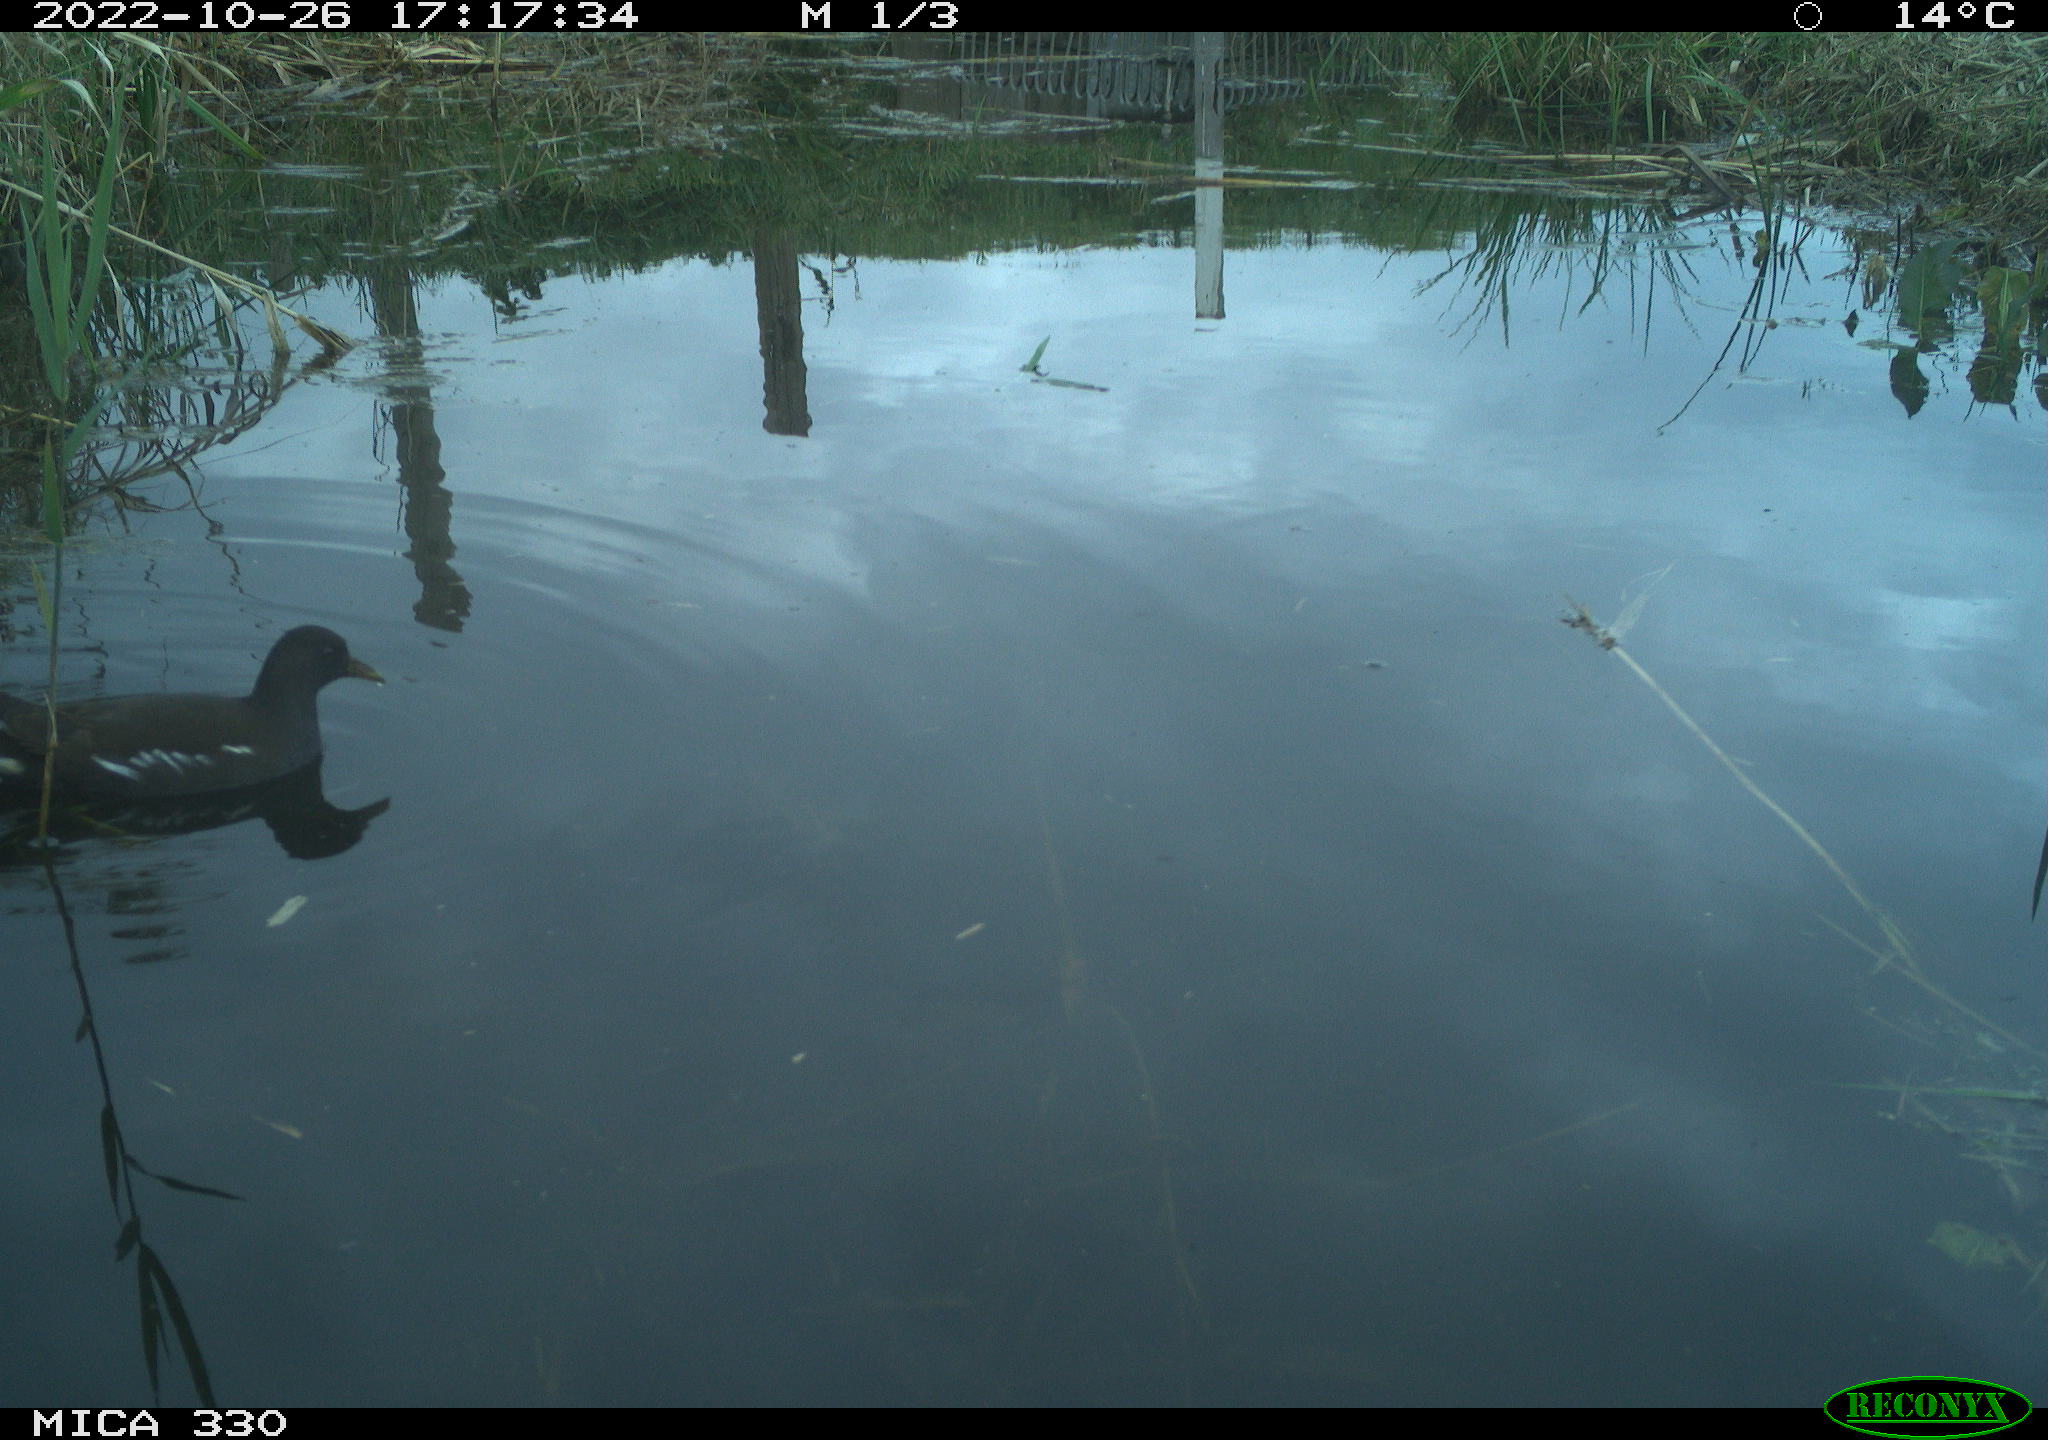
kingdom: Animalia
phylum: Chordata
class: Aves
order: Gruiformes
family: Rallidae
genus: Gallinula
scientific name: Gallinula chloropus
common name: Common moorhen
